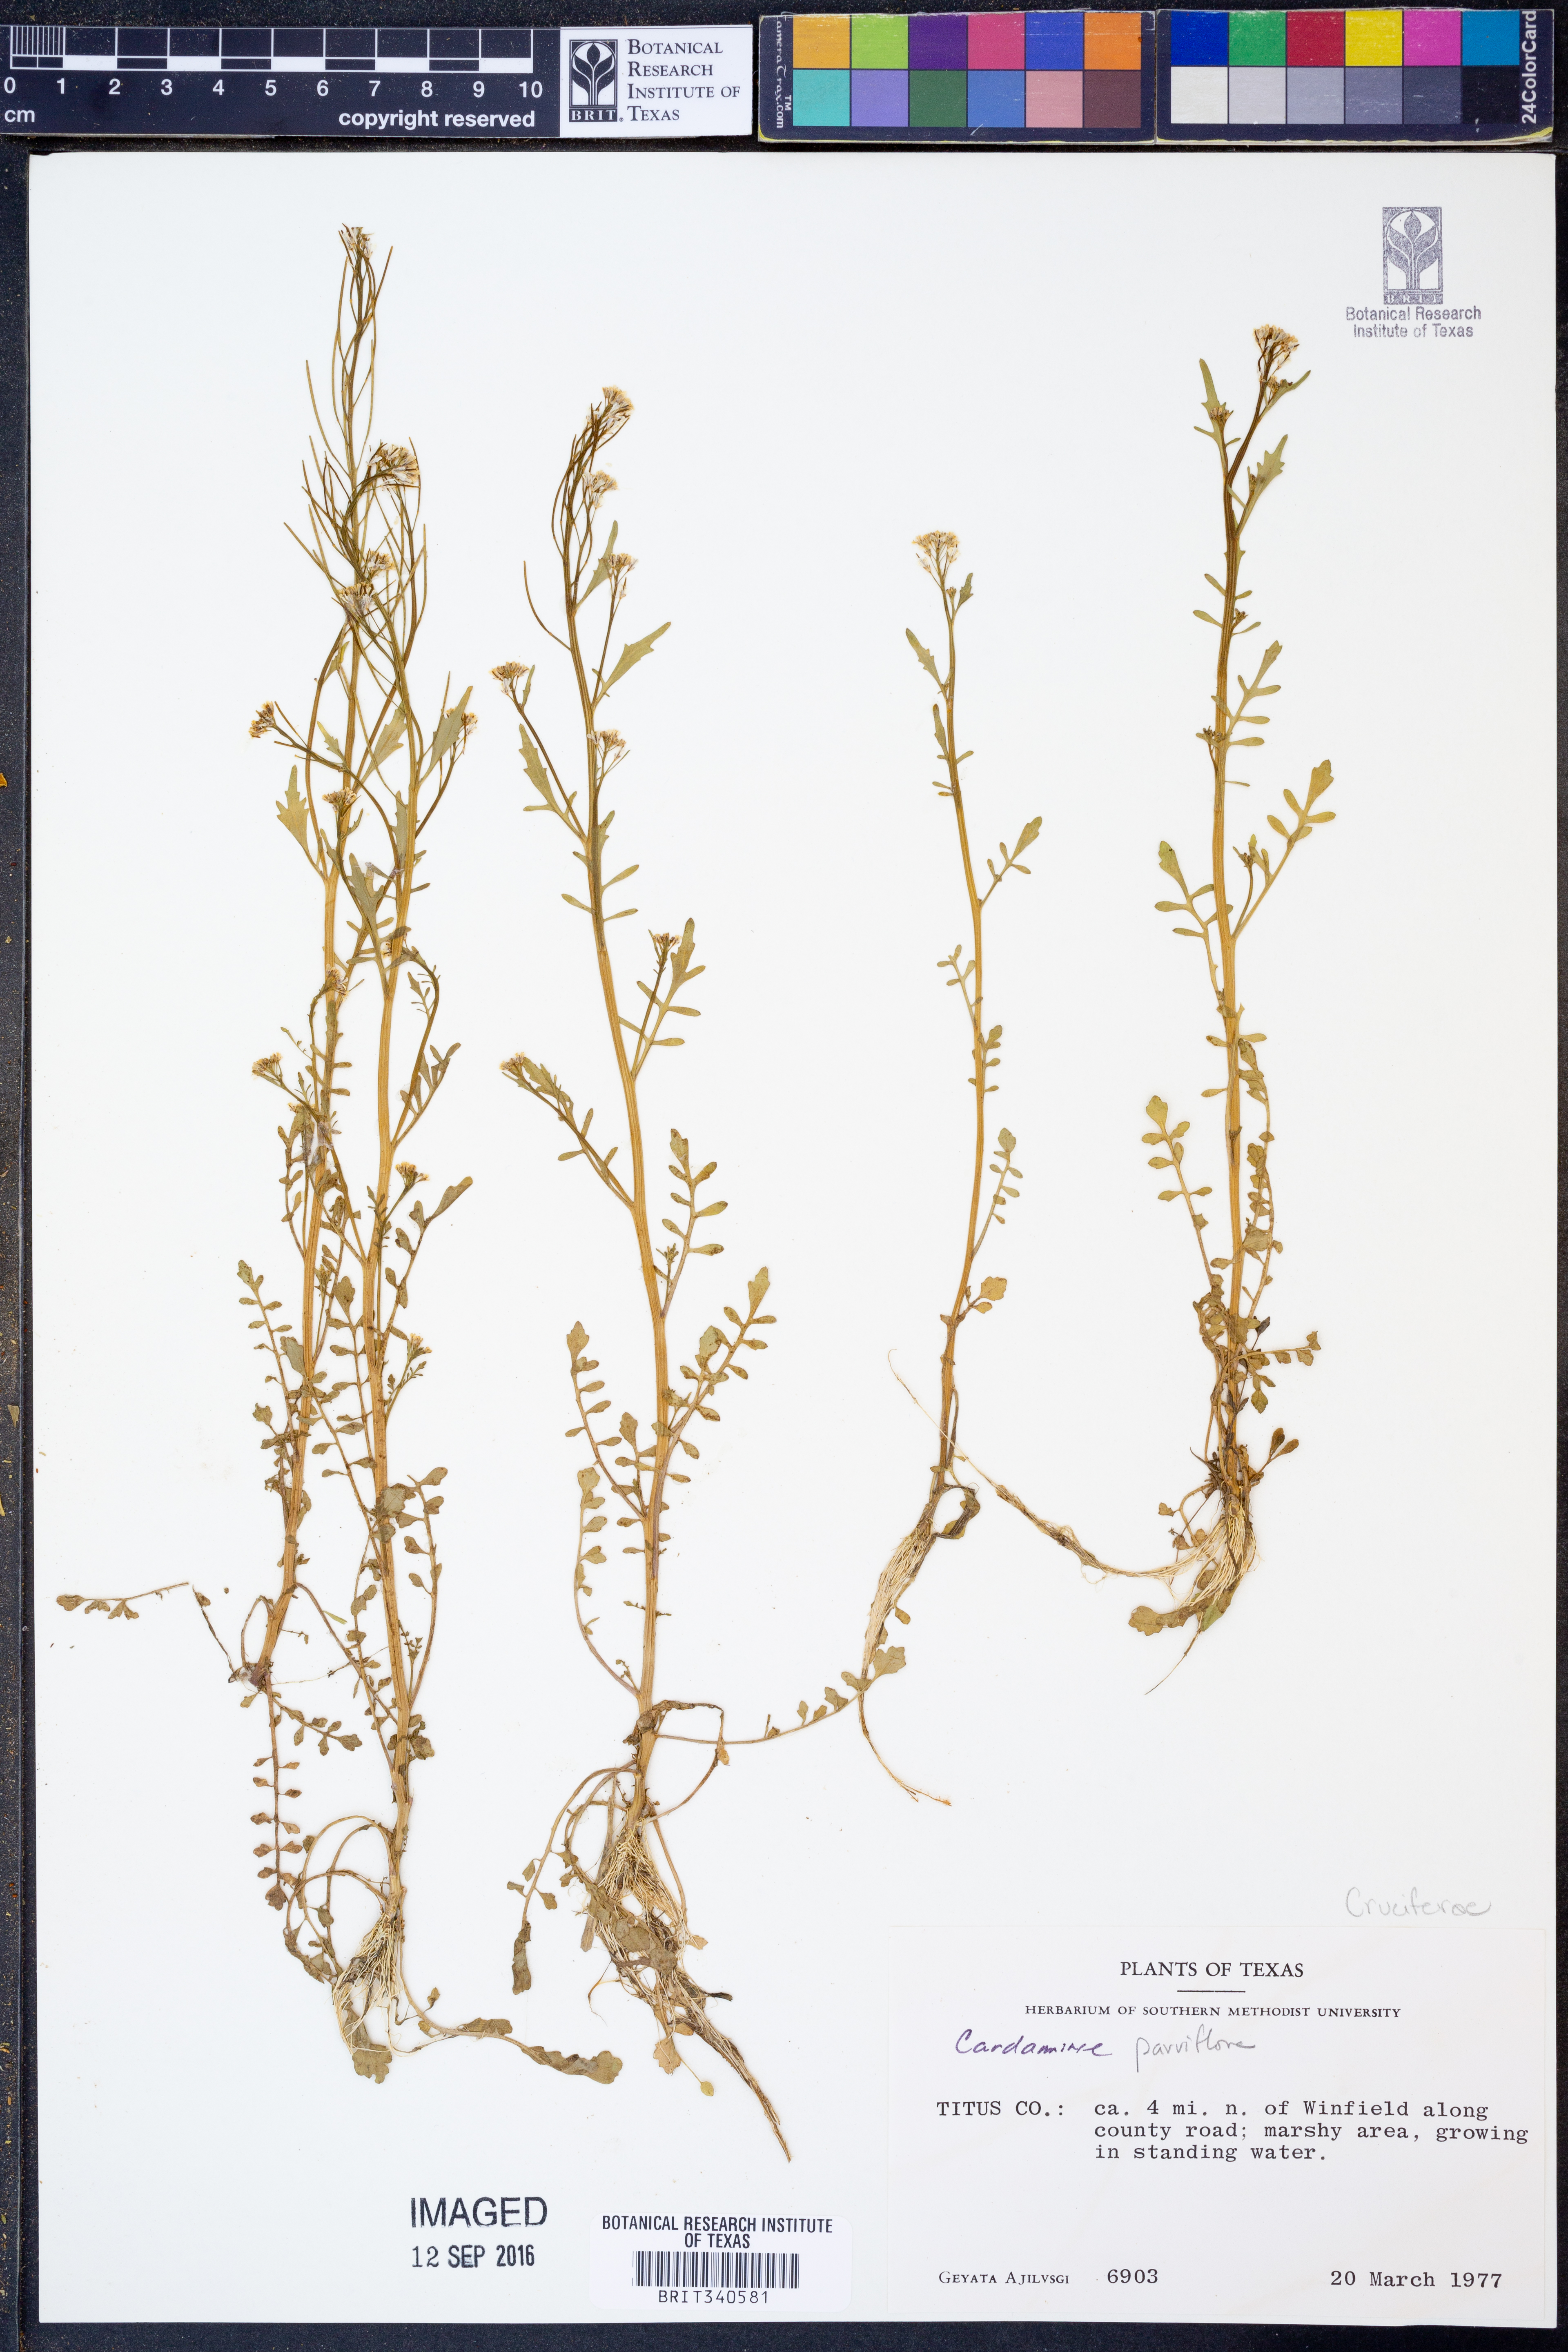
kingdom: Plantae
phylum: Tracheophyta
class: Magnoliopsida
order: Brassicales
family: Brassicaceae
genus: Cardamine
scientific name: Cardamine parviflora
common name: Sand bittercress
